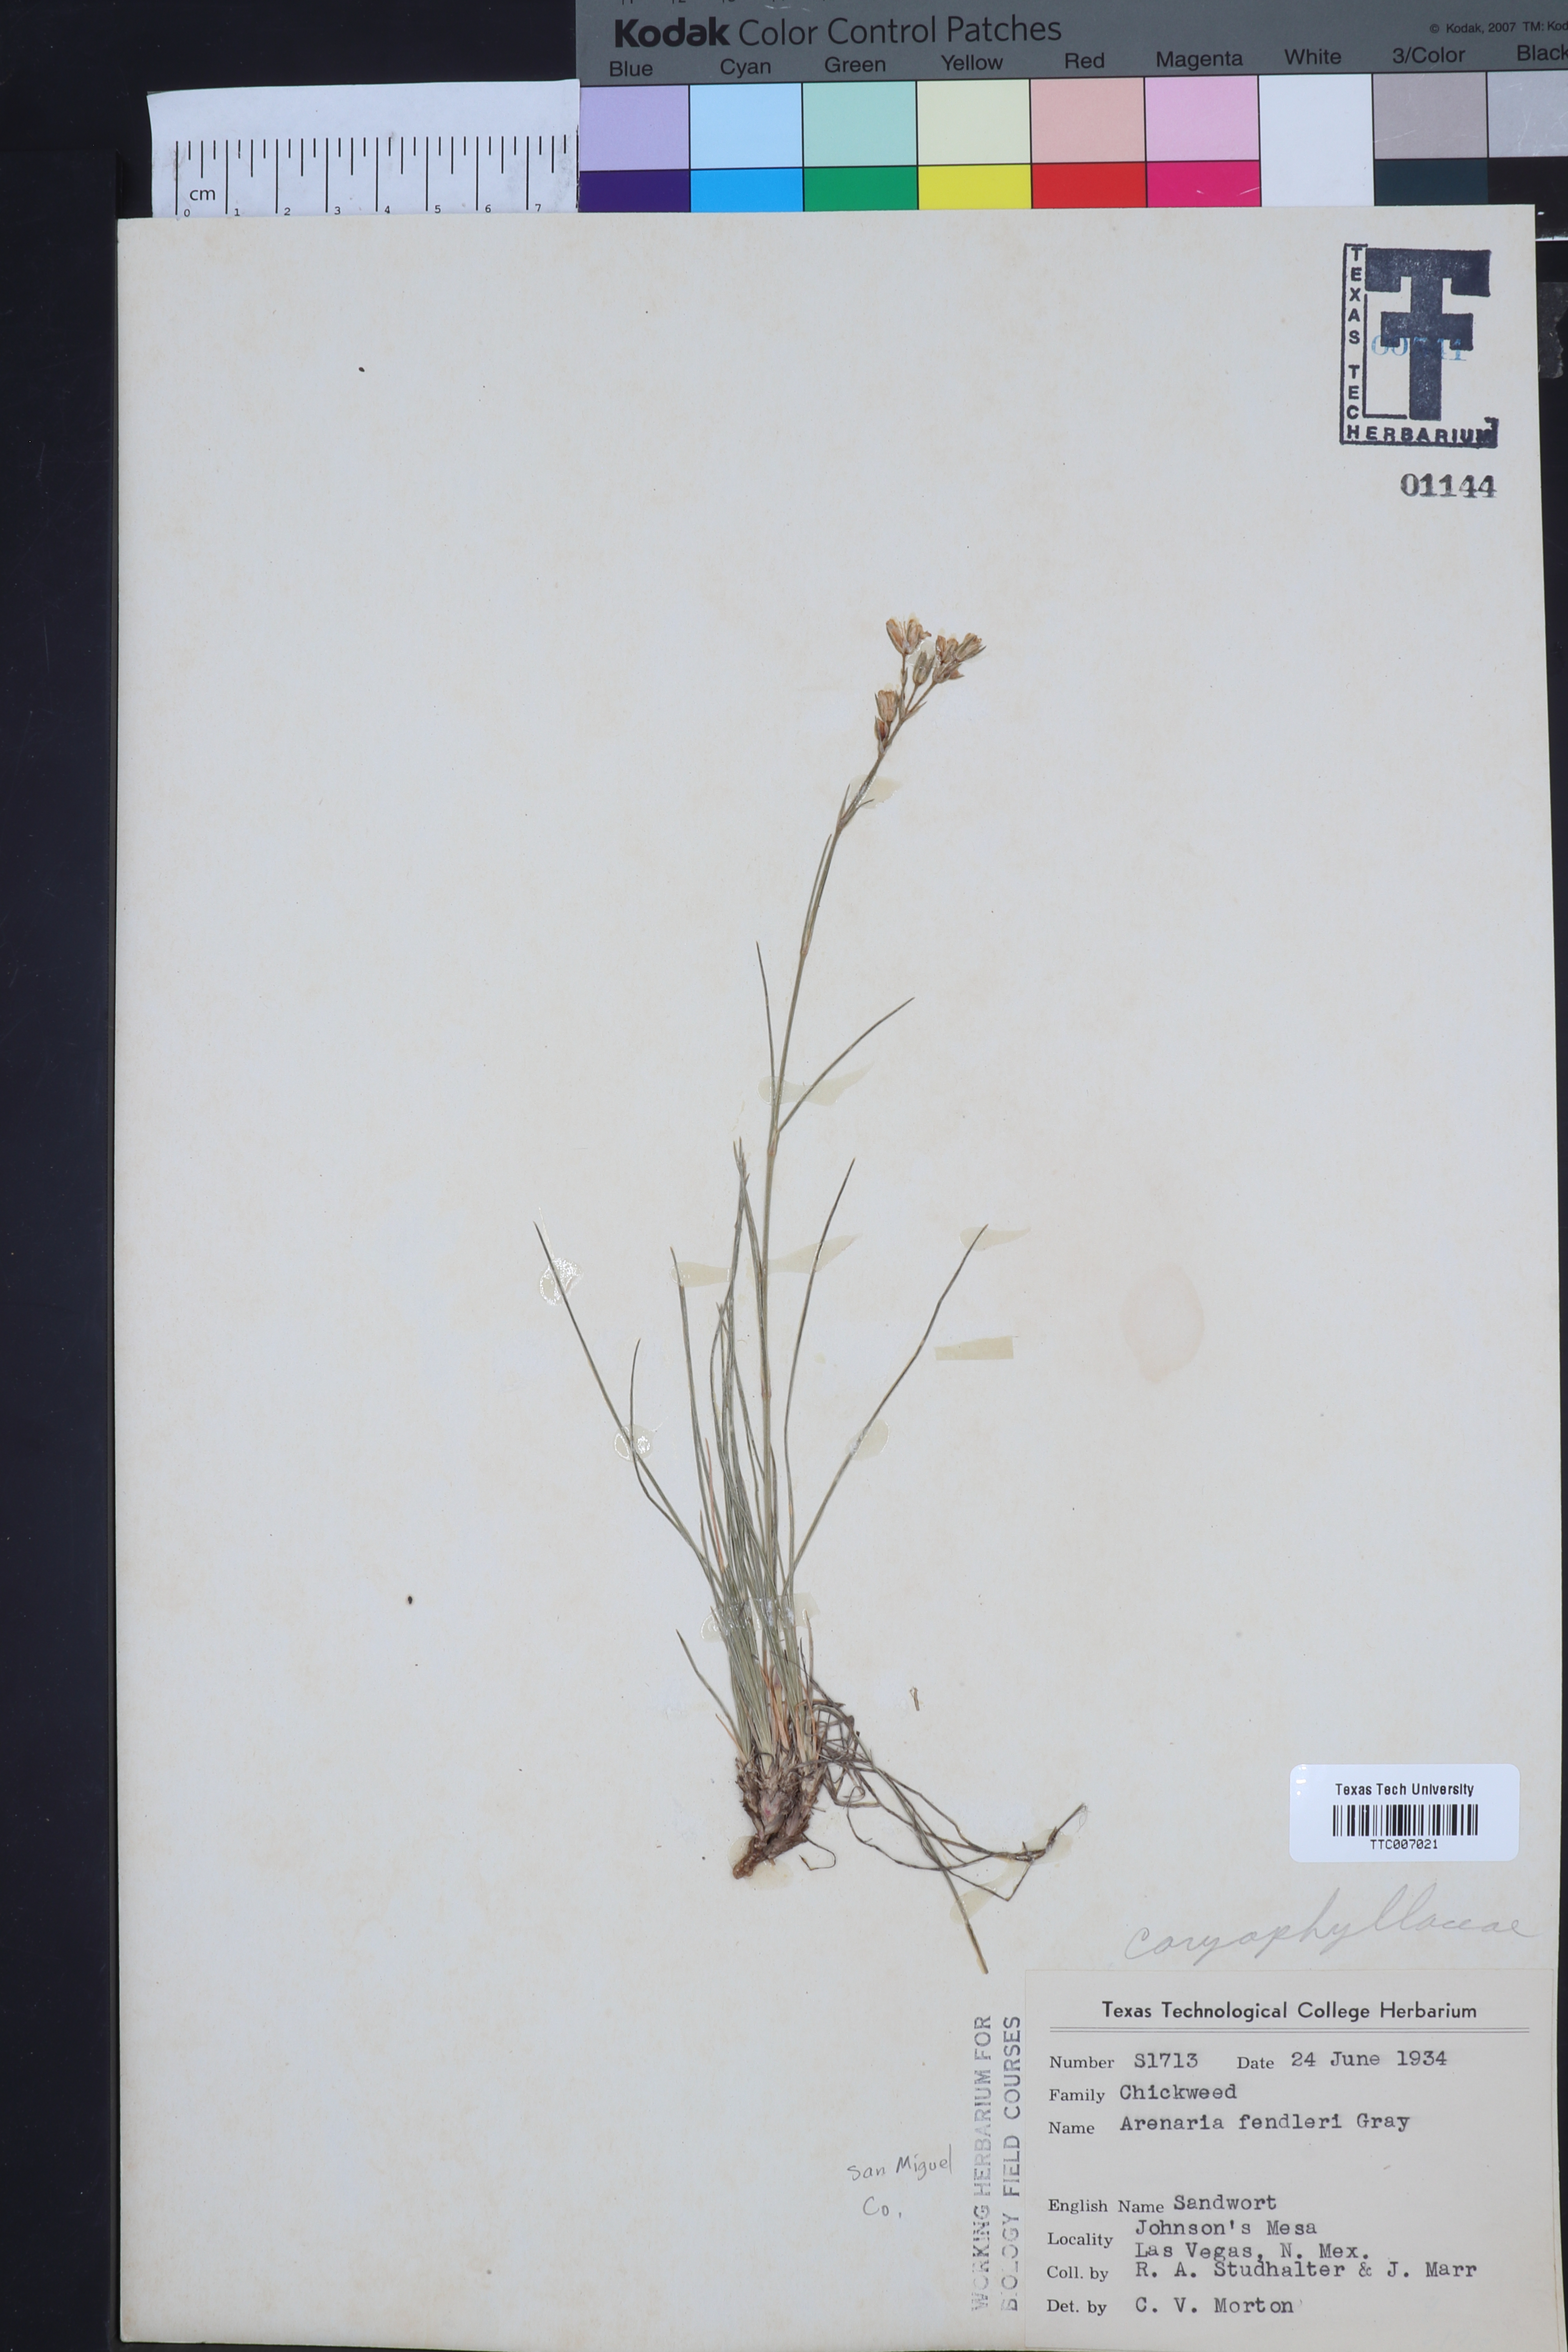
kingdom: Plantae
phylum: Tracheophyta
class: Magnoliopsida
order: Caryophyllales
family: Caryophyllaceae
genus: Eremogone
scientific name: Eremogone fendleri
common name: Fendler's sandwort
